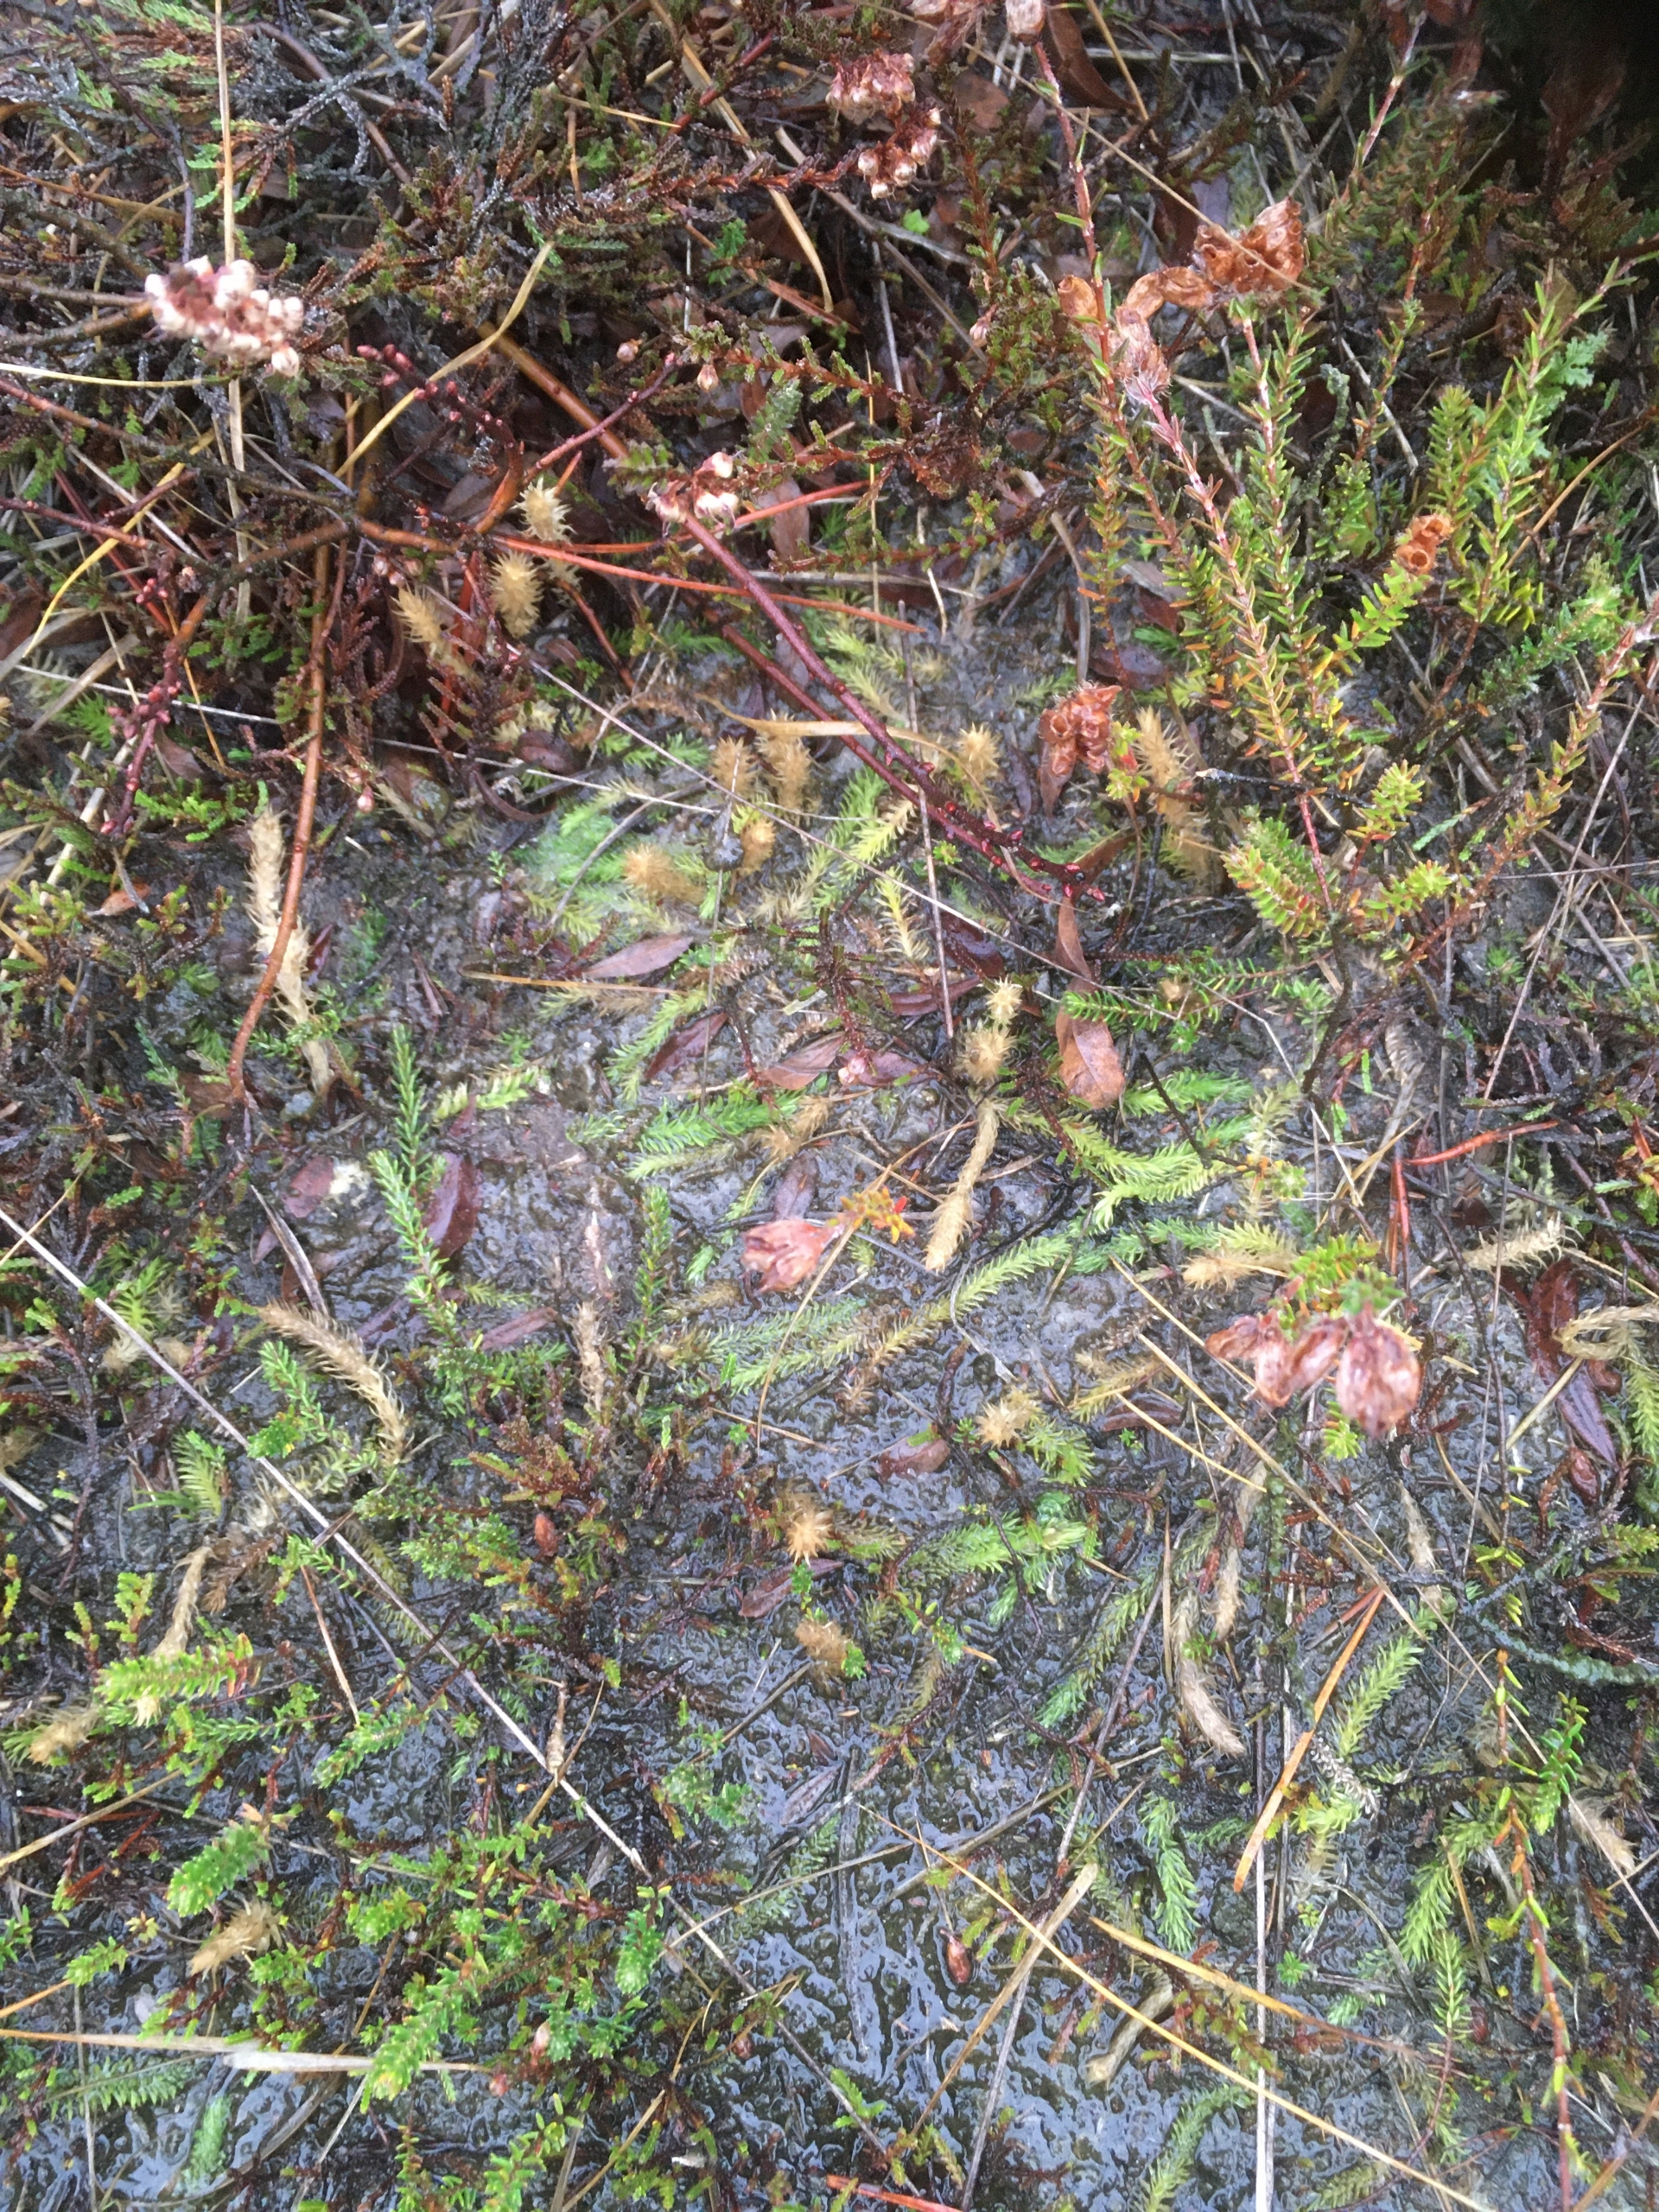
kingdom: Plantae
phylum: Tracheophyta
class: Lycopodiopsida
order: Lycopodiales
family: Lycopodiaceae
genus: Lycopodiella
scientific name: Lycopodiella inundata
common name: Liden ulvefod
